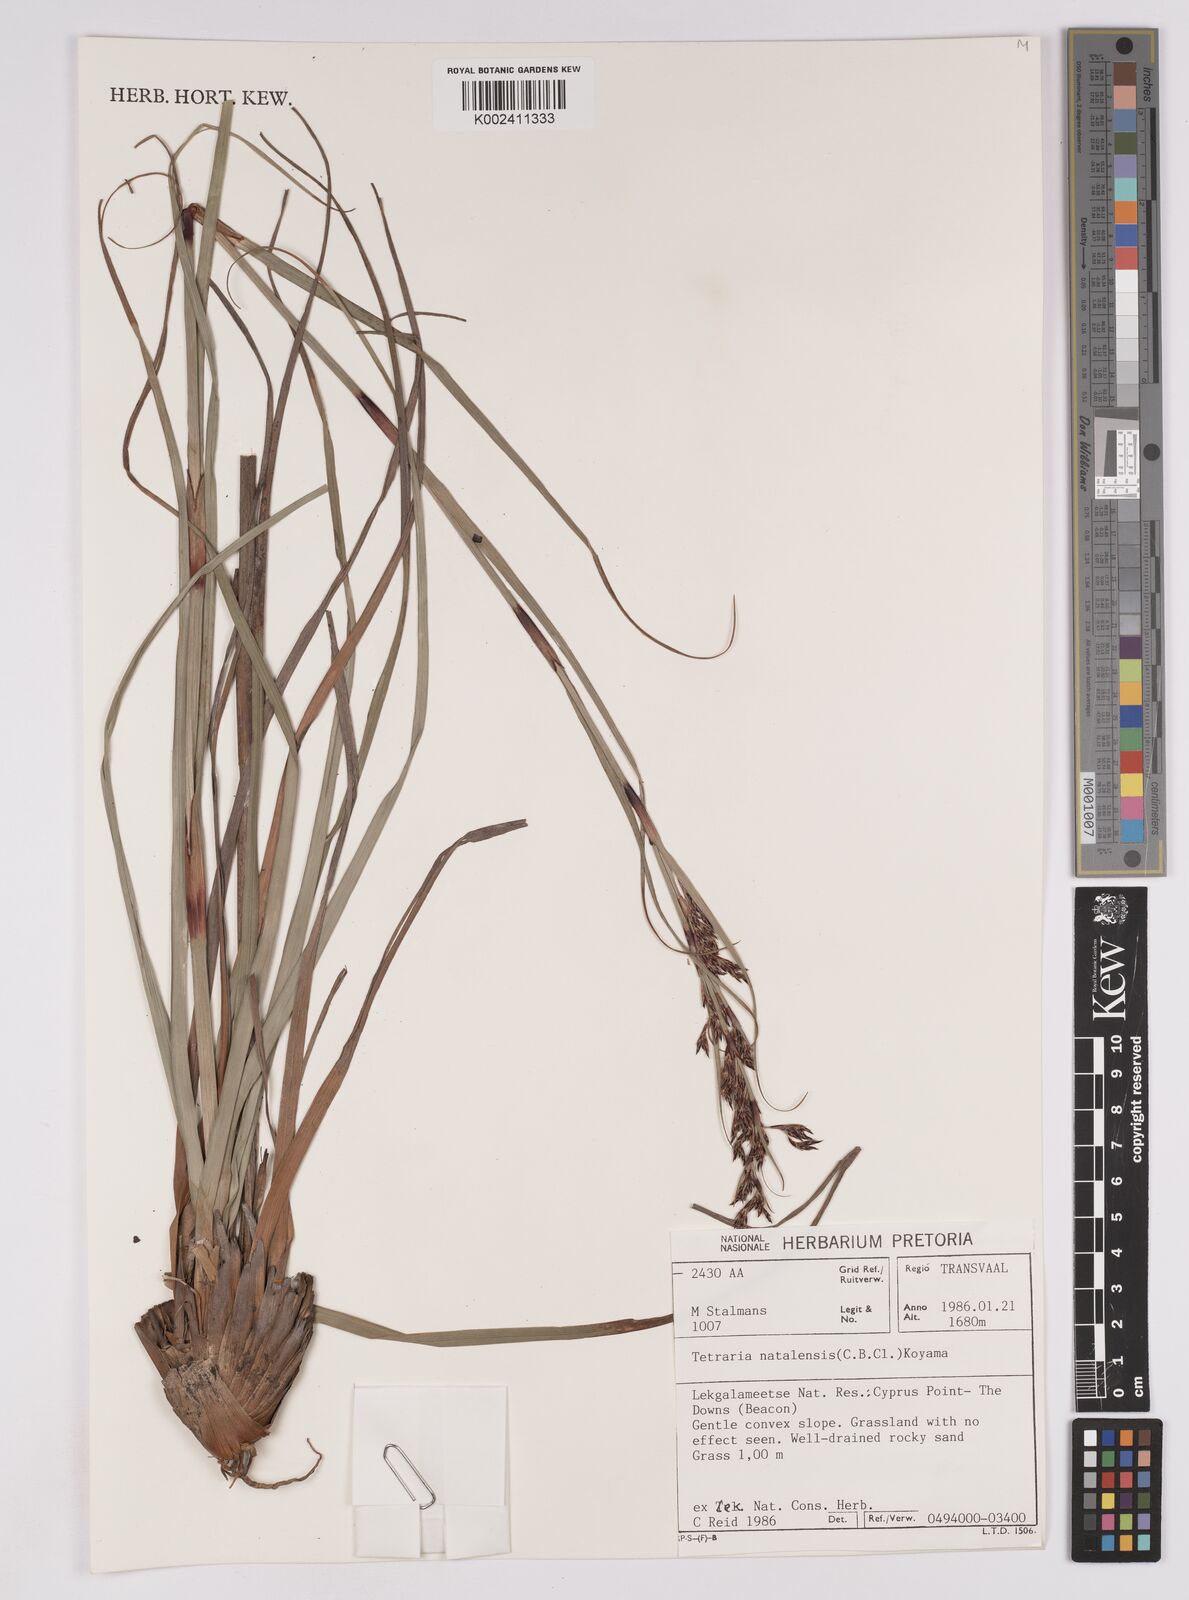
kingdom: Plantae
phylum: Tracheophyta
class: Liliopsida
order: Poales
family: Cyperaceae
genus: Costularia
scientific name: Costularia natalensis
